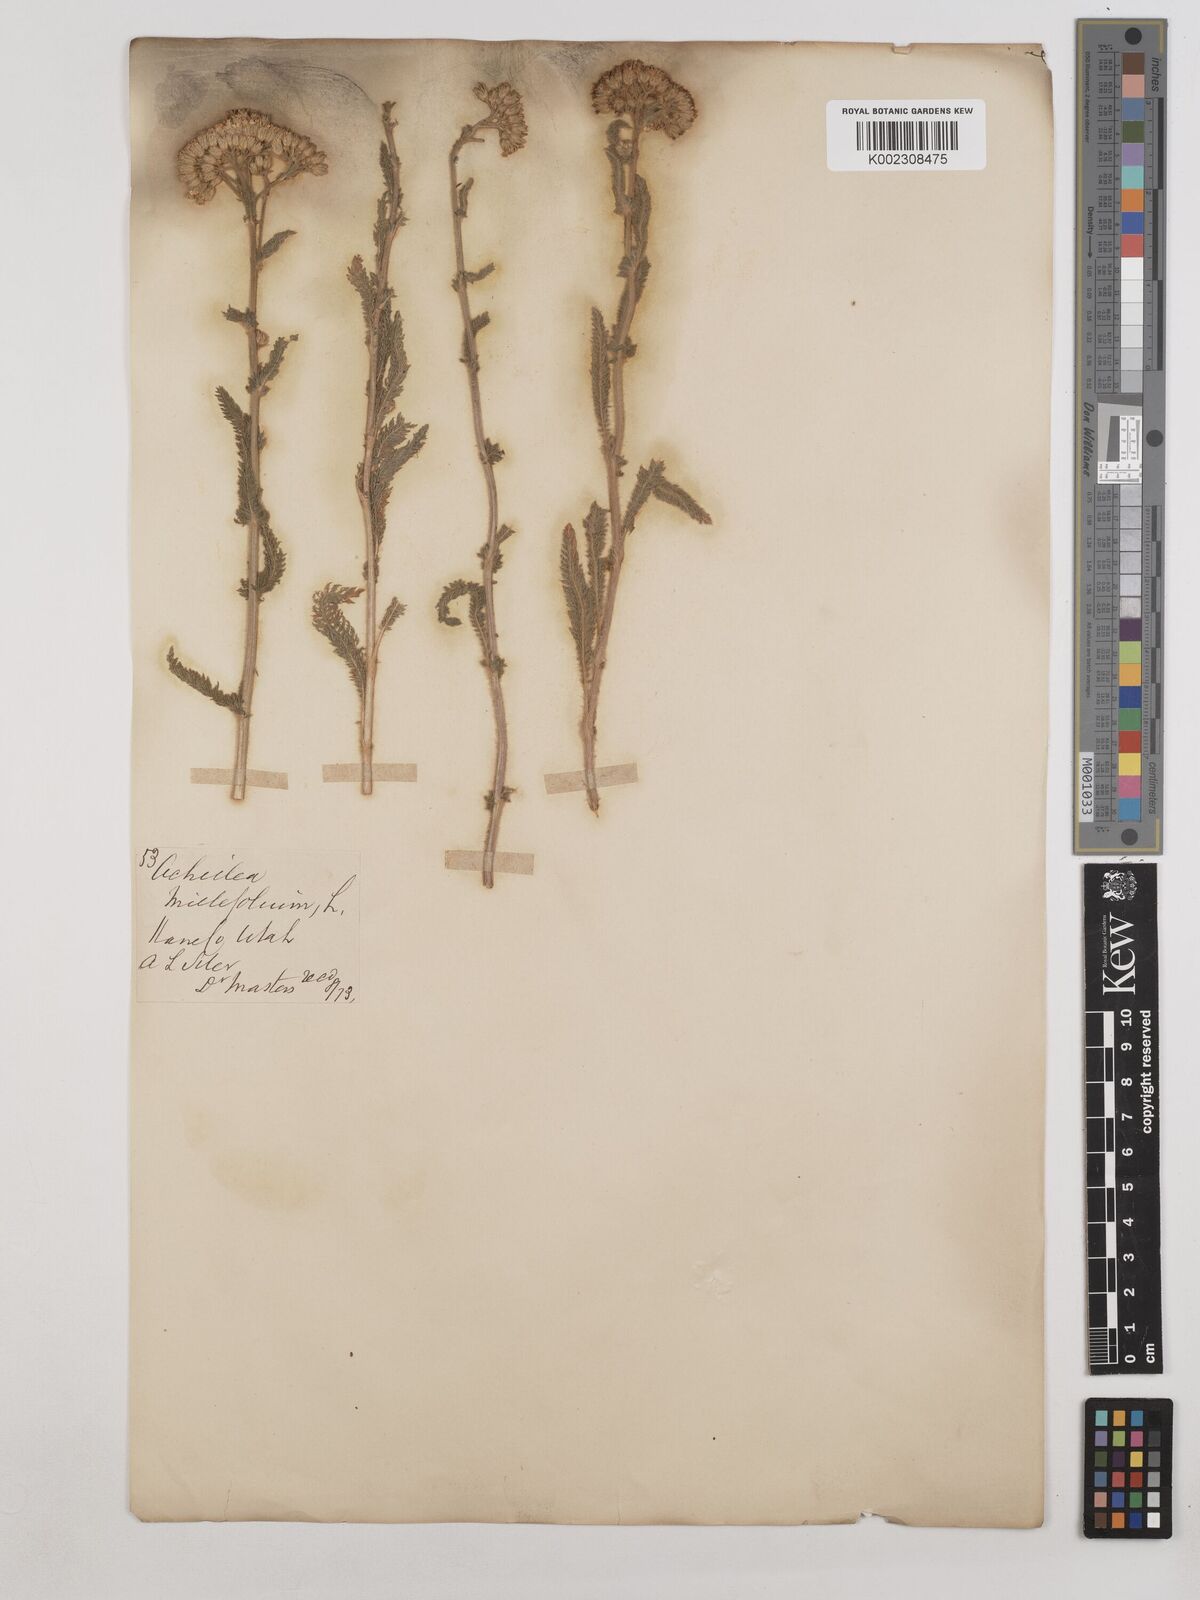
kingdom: Plantae
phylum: Tracheophyta
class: Magnoliopsida
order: Asterales
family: Asteraceae
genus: Achillea
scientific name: Achillea millefolium
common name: Yarrow
